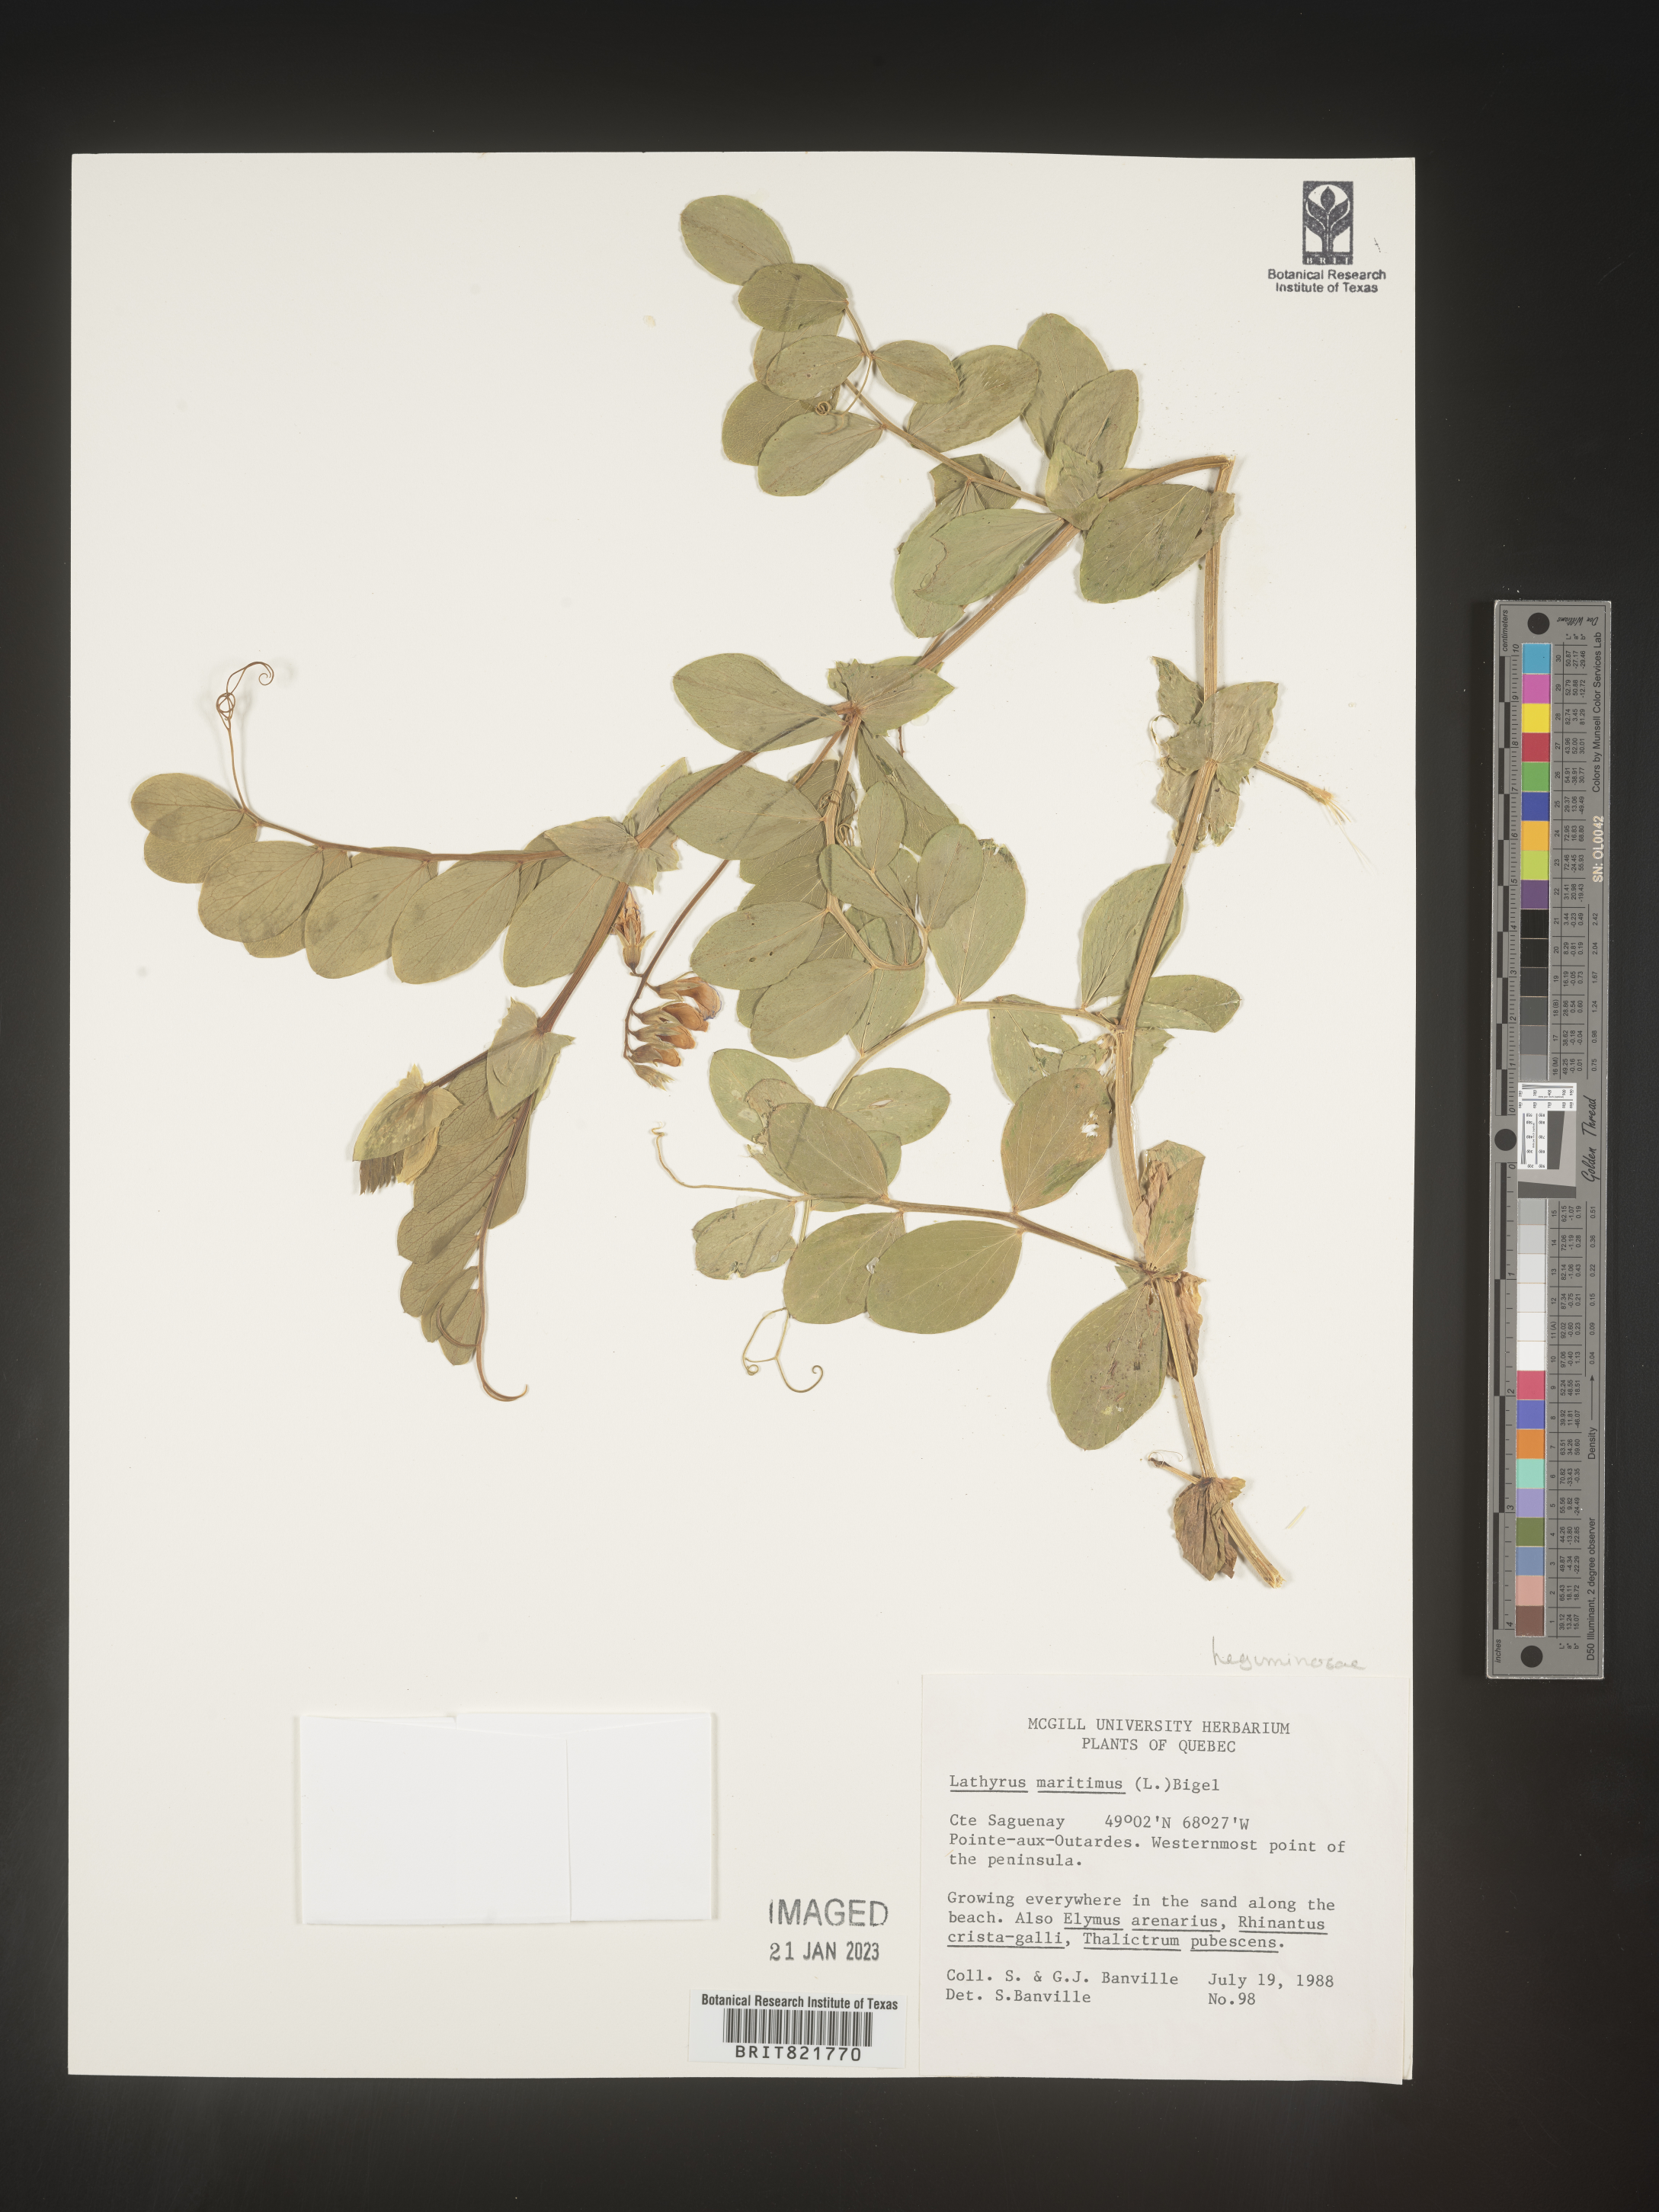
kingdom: Plantae
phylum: Tracheophyta
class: Magnoliopsida
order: Fabales
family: Fabaceae
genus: Lathyrus
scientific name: Lathyrus
